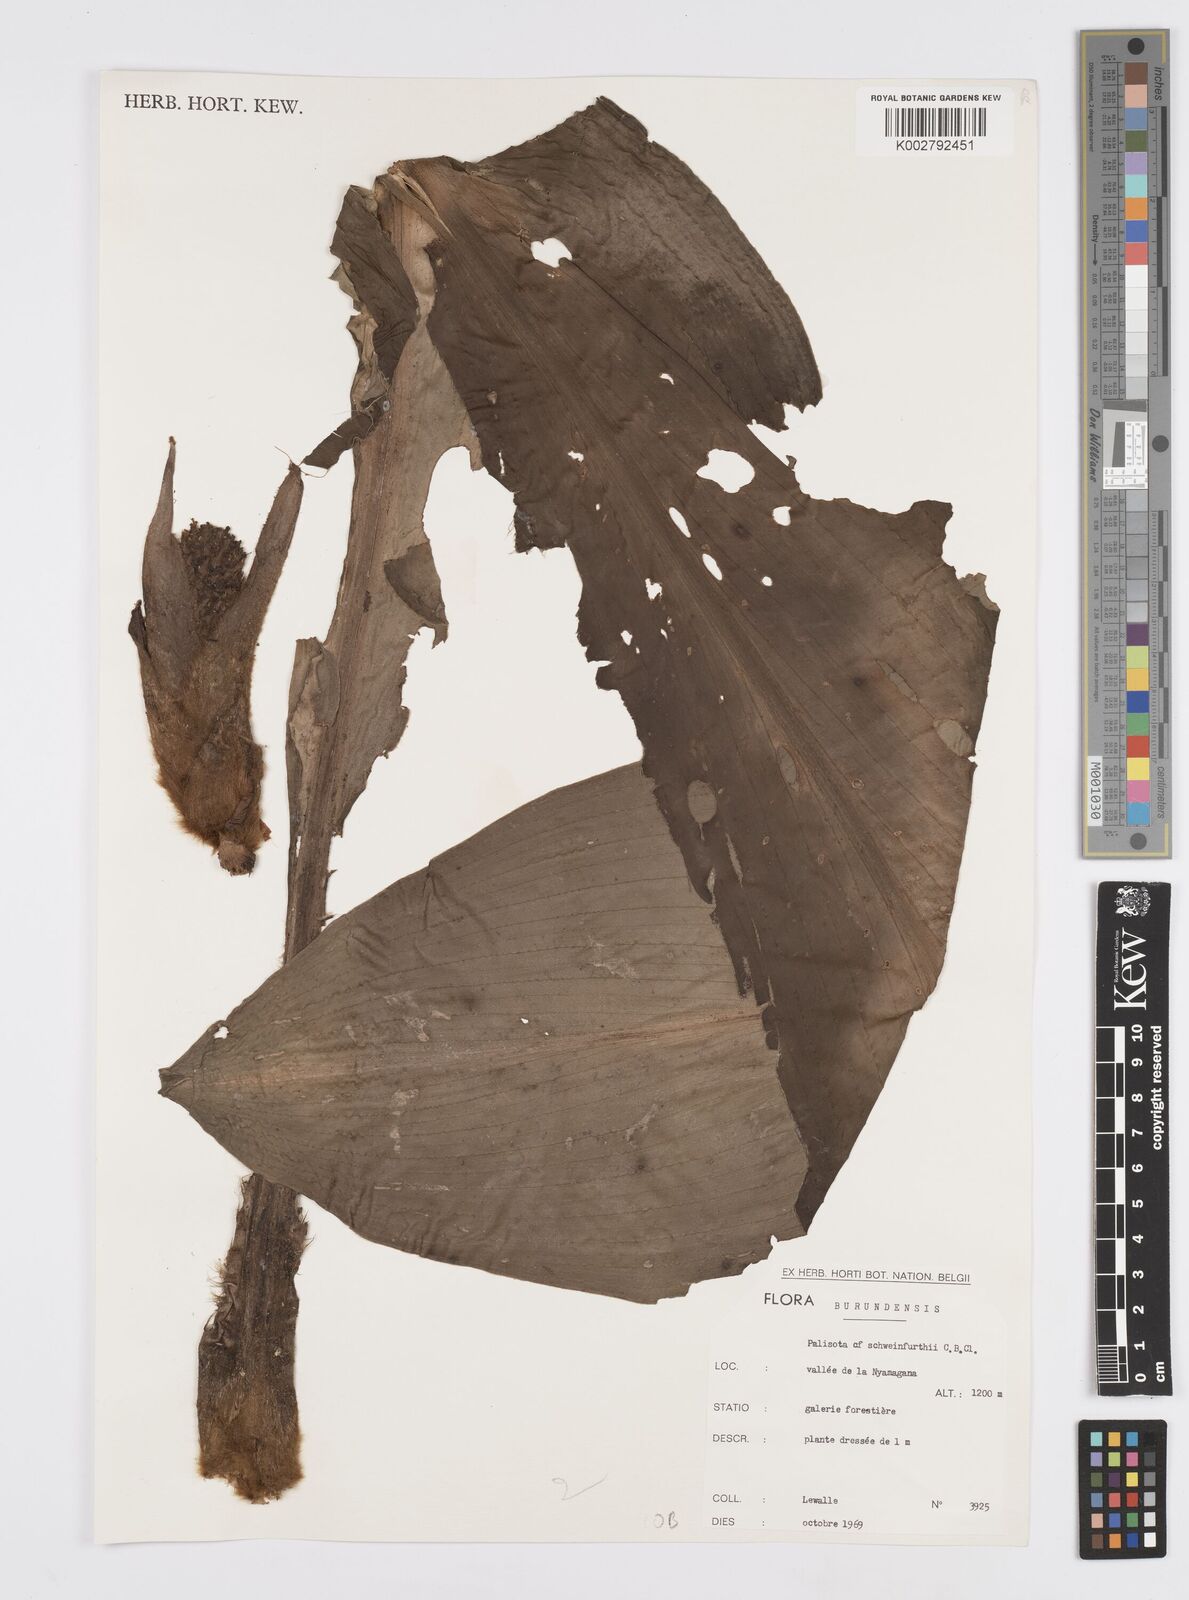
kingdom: Plantae
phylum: Tracheophyta
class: Liliopsida
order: Commelinales
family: Commelinaceae
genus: Palisota
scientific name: Palisota schweinfurthii
